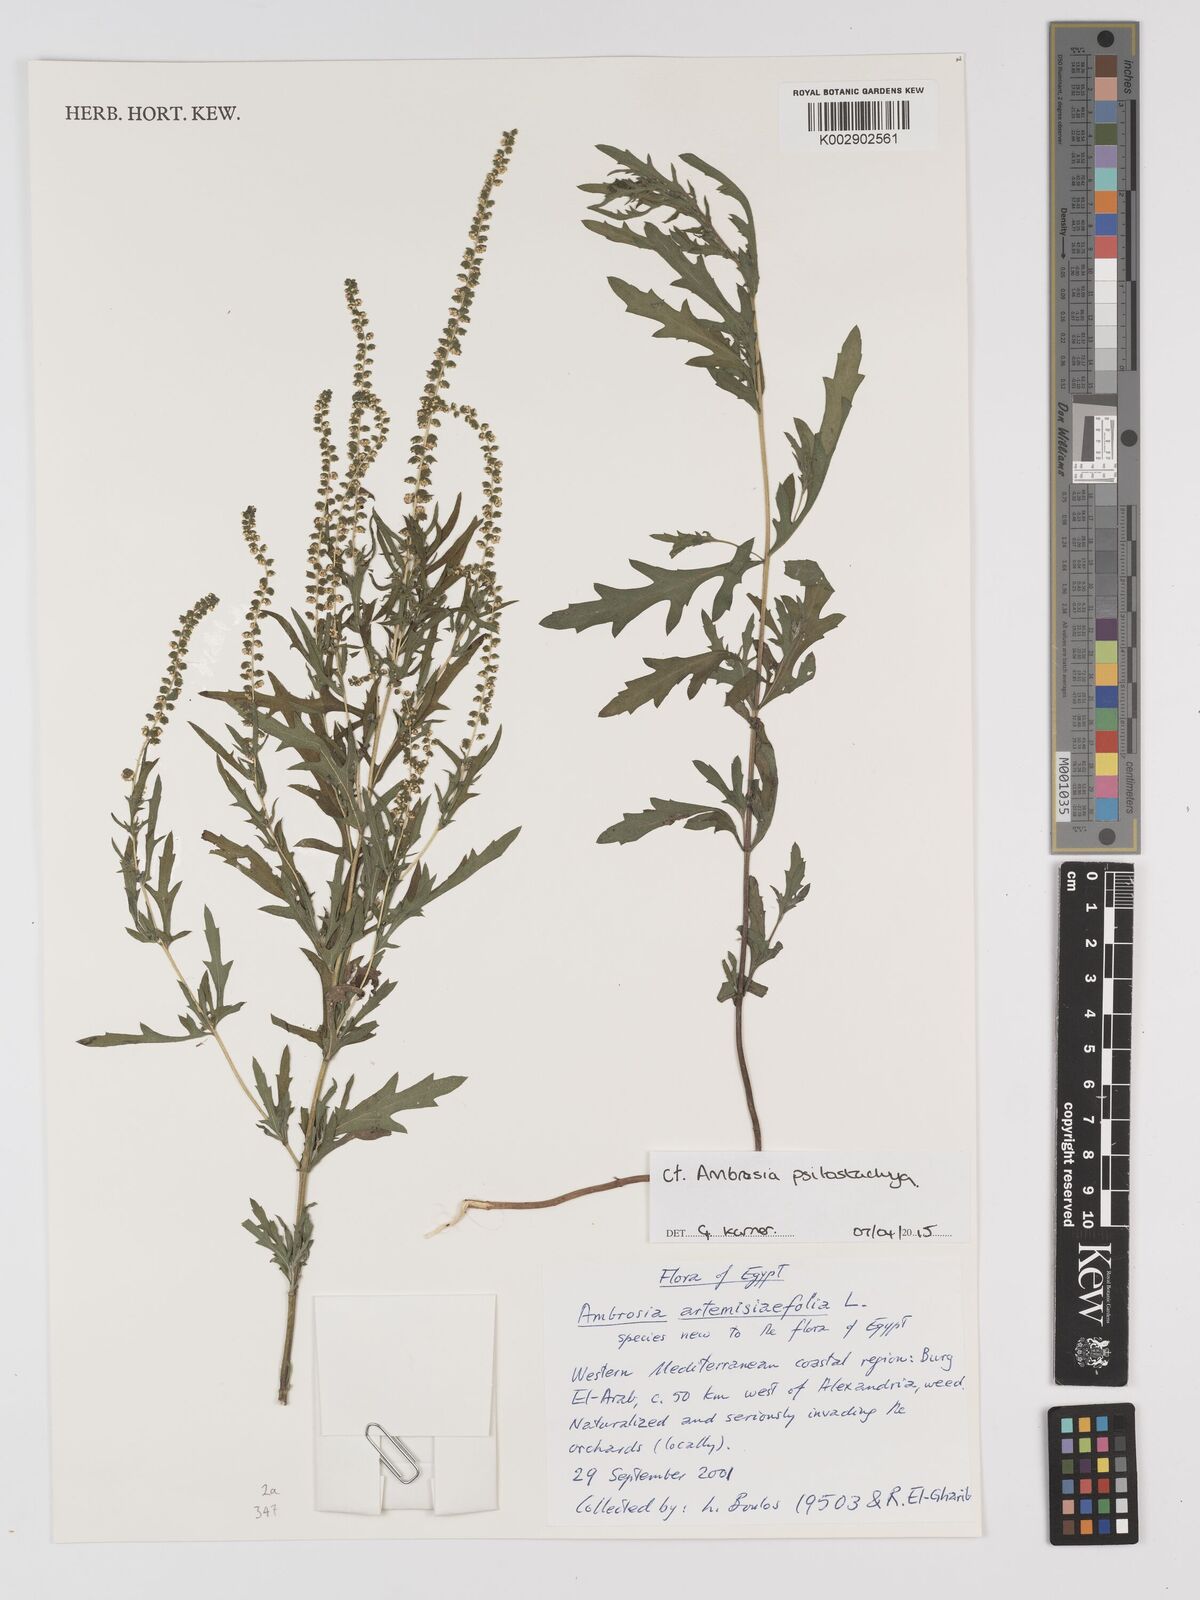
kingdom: Plantae
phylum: Tracheophyta
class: Magnoliopsida
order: Asterales
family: Asteraceae
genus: Ambrosia
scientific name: Ambrosia psilostachya
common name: Perennial ragweed
